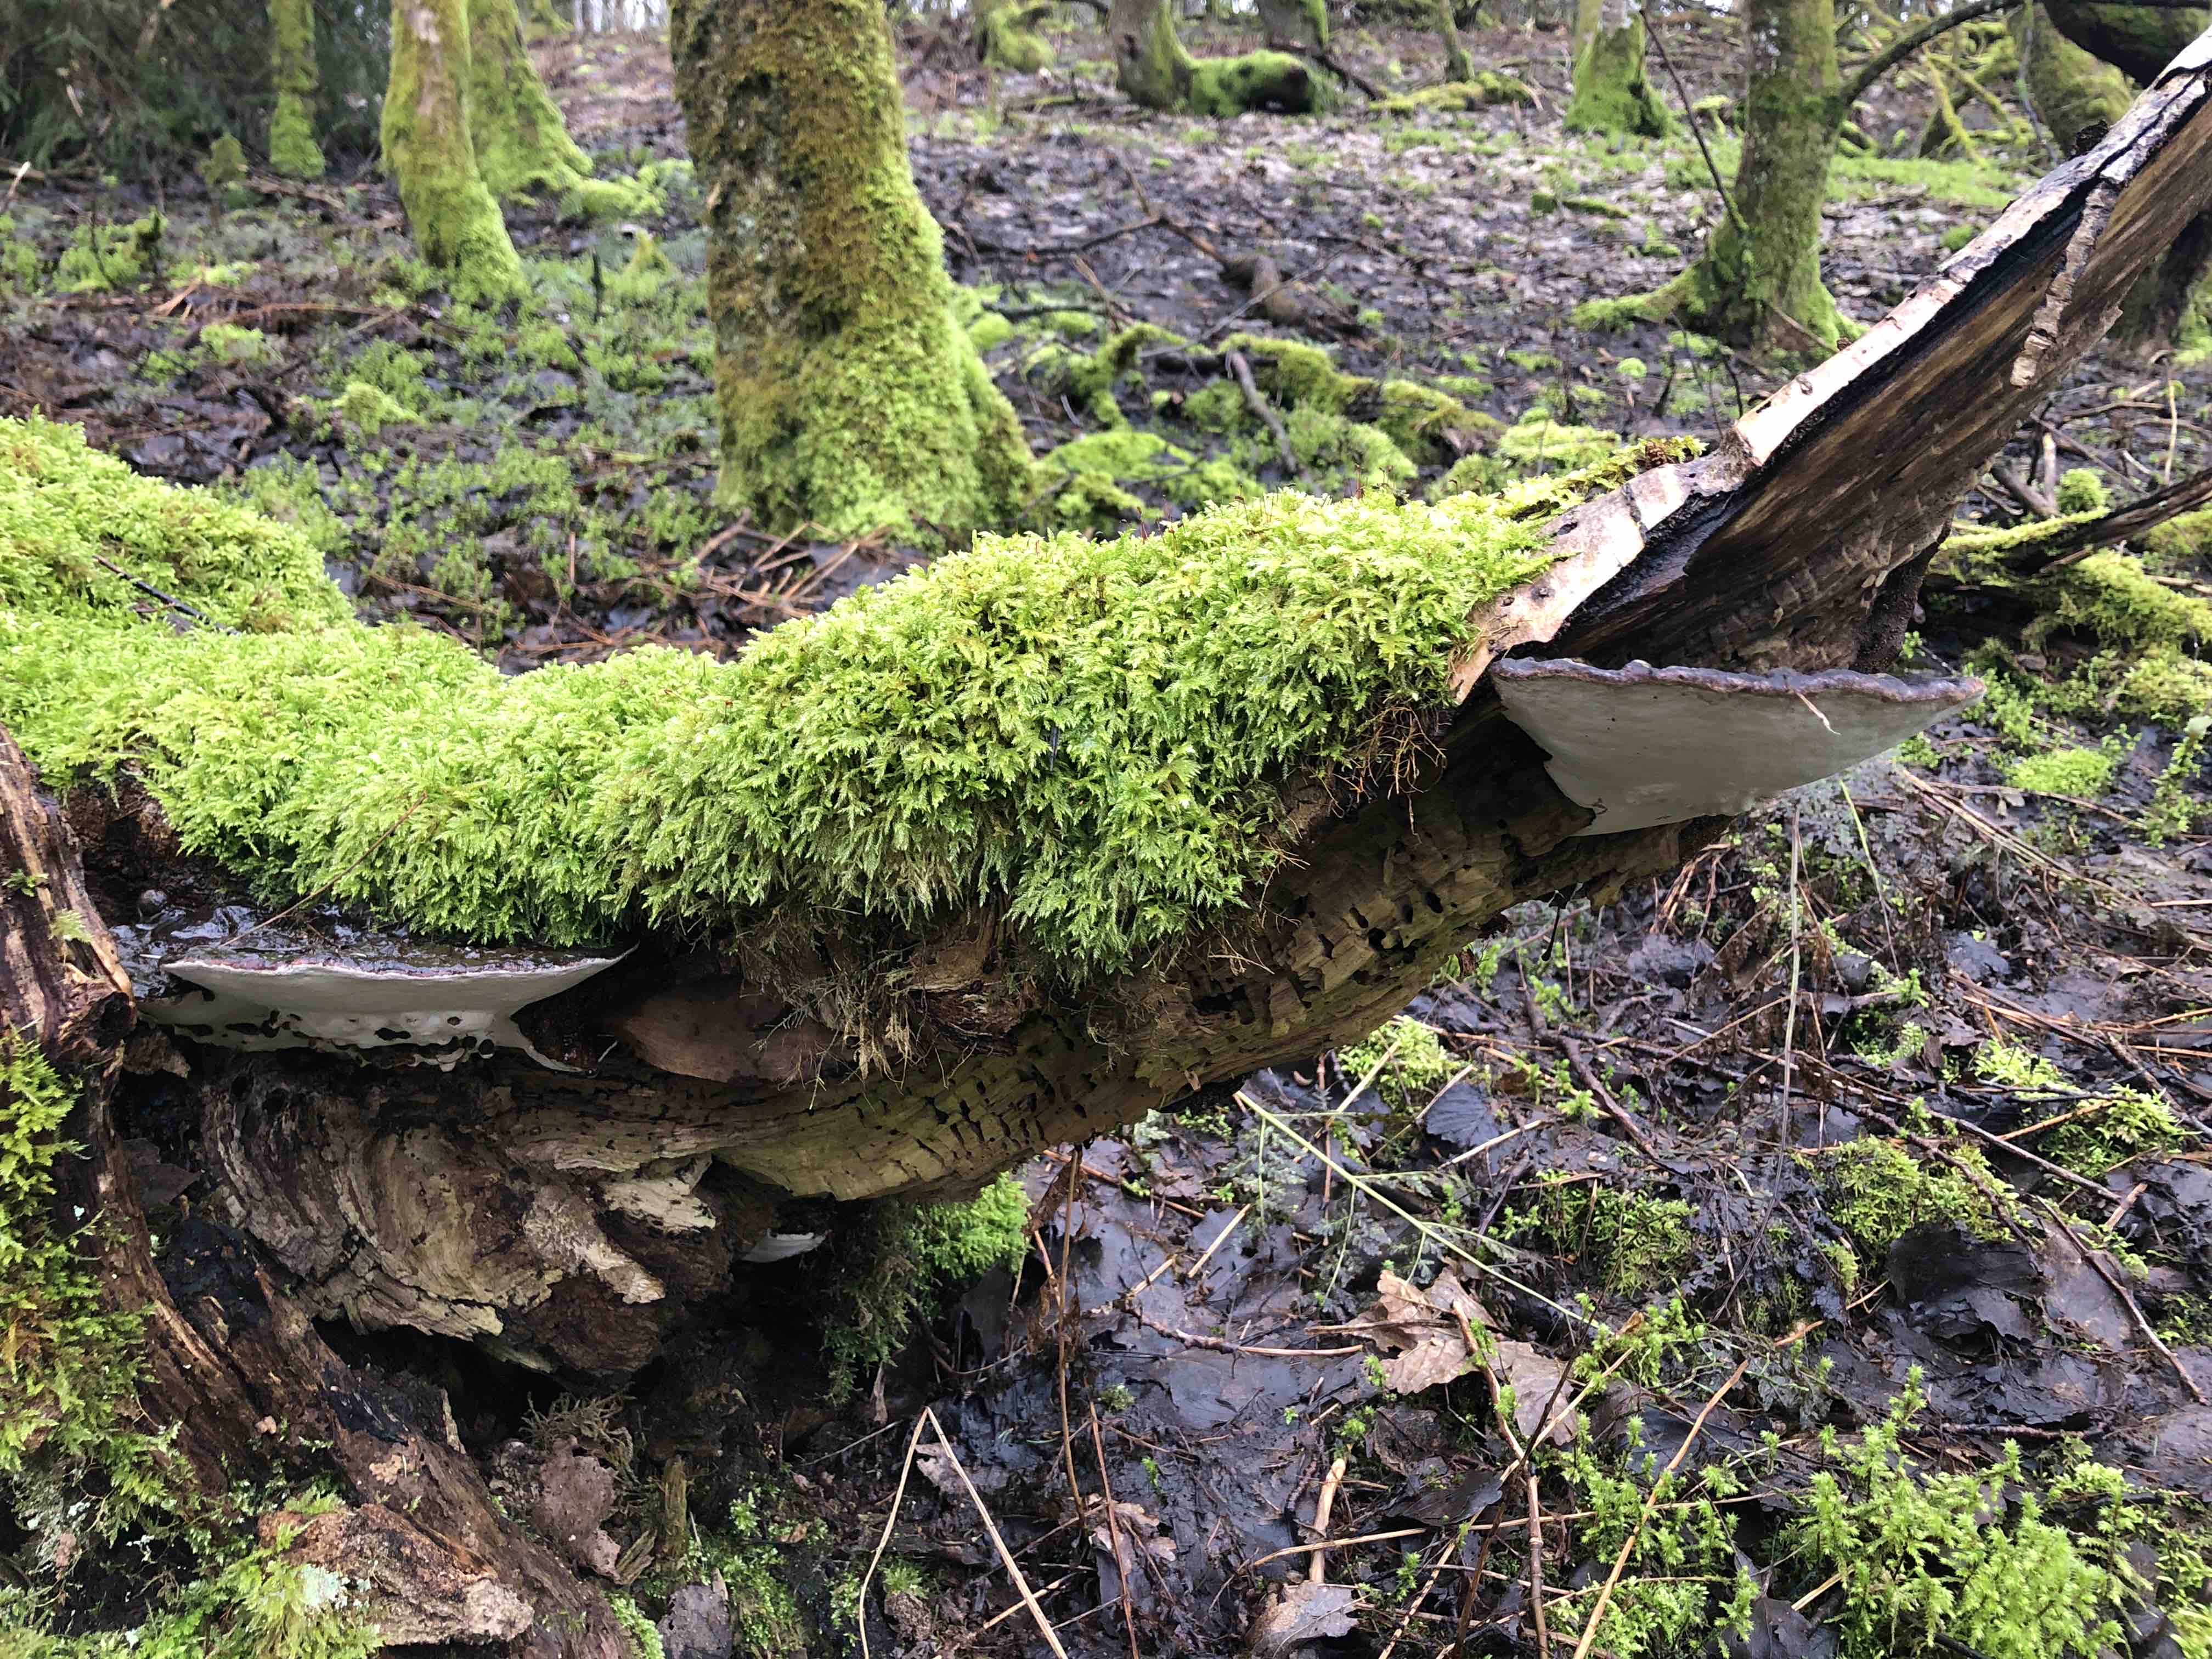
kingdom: Fungi
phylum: Basidiomycota
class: Agaricomycetes
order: Polyporales
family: Polyporaceae
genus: Ganoderma
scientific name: Ganoderma applanatum
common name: flad lakporesvamp
